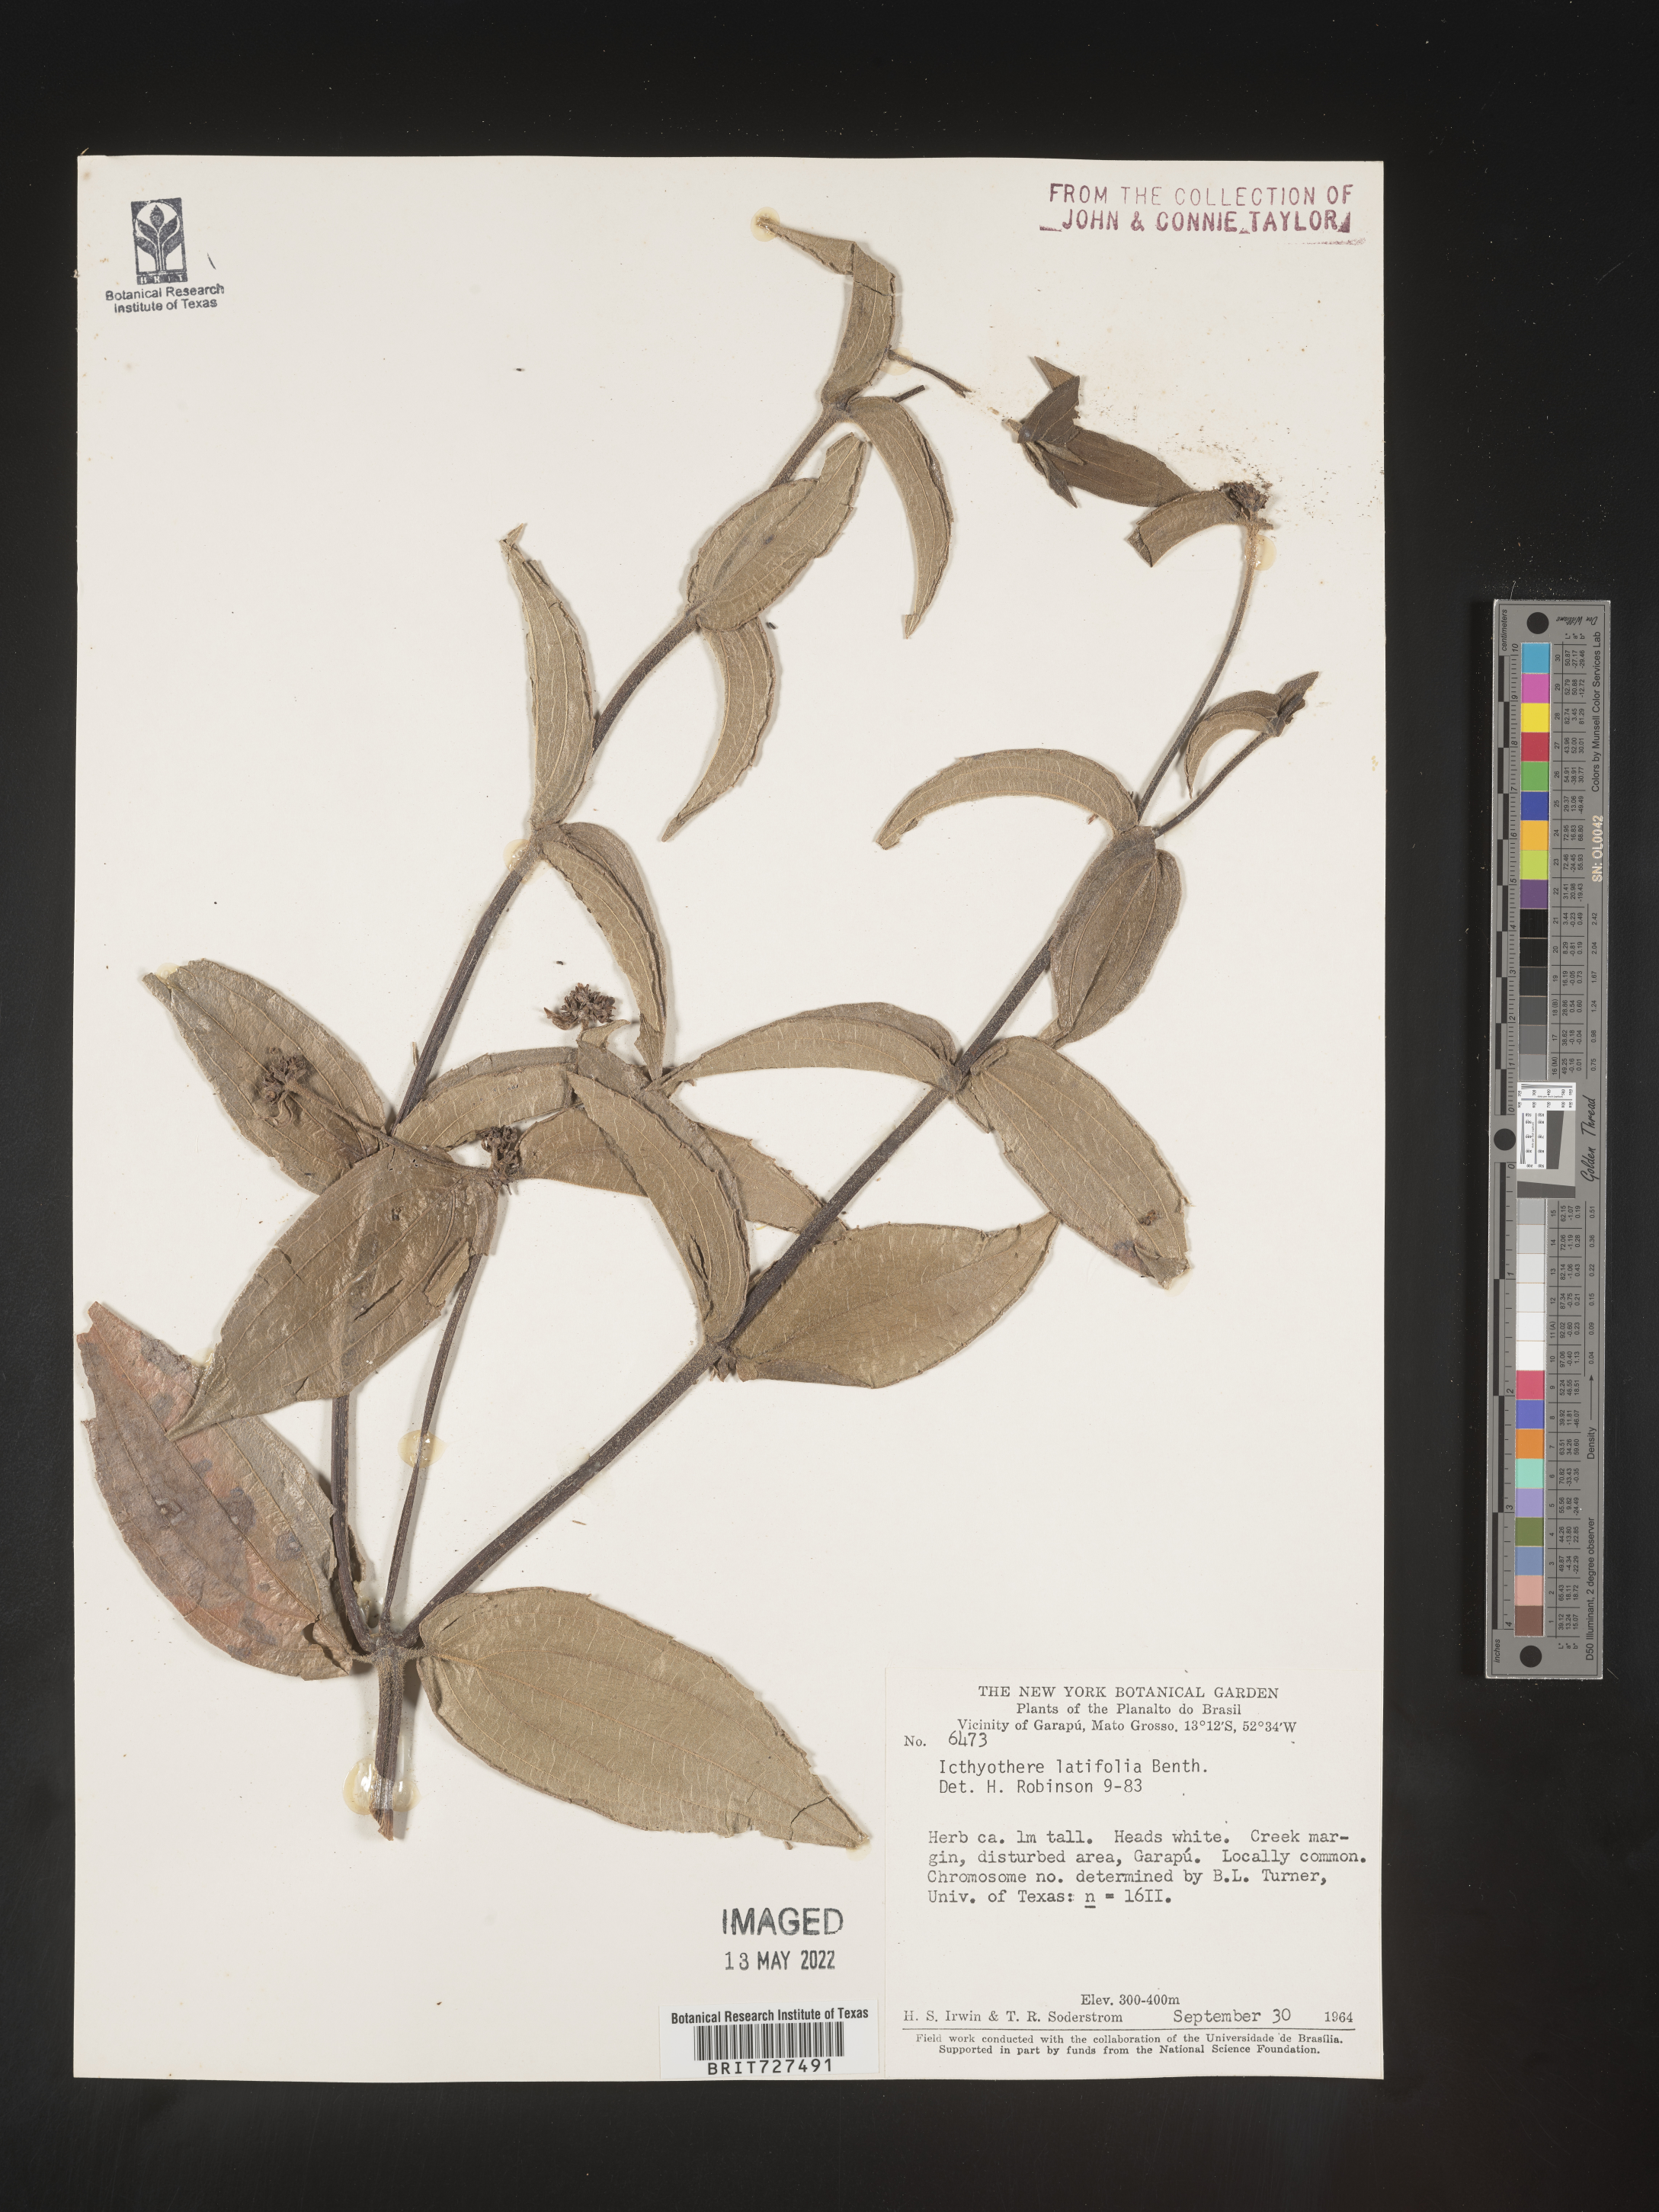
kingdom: Plantae
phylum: Tracheophyta
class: Magnoliopsida
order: Asterales
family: Asteraceae
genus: Ichthyothere
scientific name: Ichthyothere
